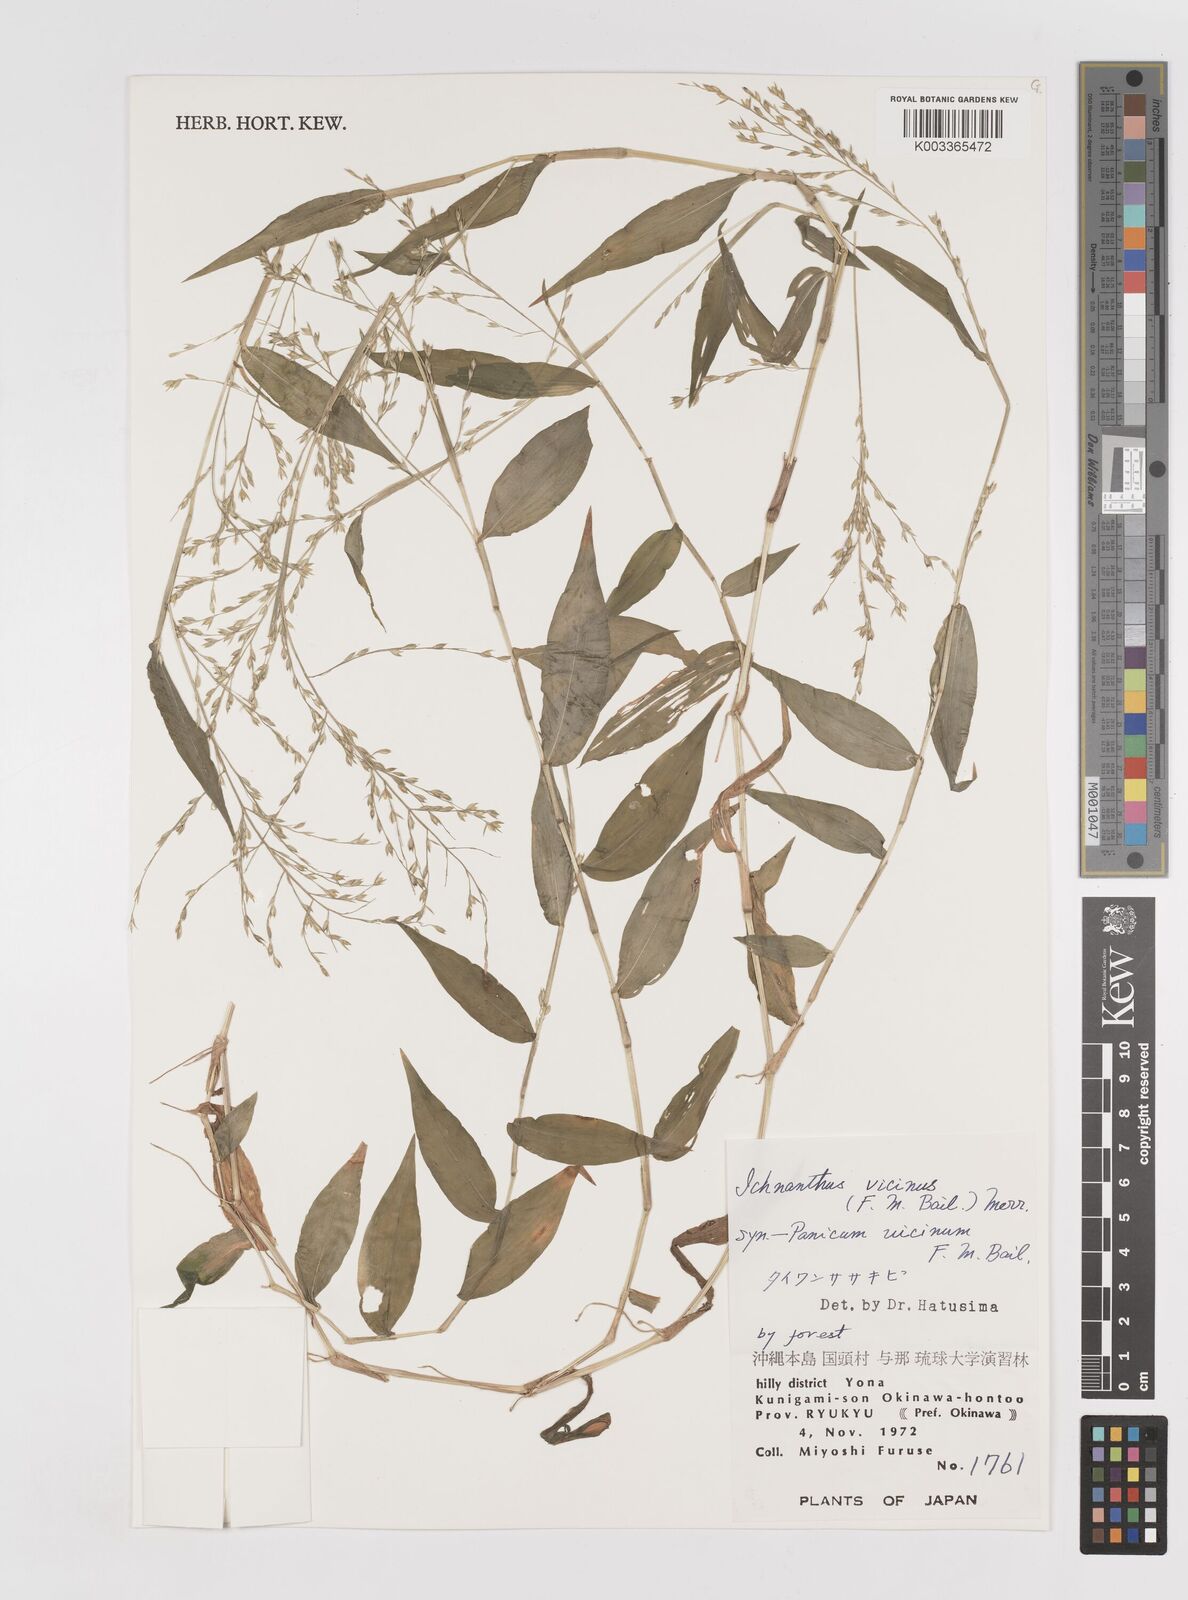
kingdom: Plantae
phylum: Tracheophyta
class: Liliopsida
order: Poales
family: Poaceae
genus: Ichnanthus
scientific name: Ichnanthus pallens
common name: Water grass
